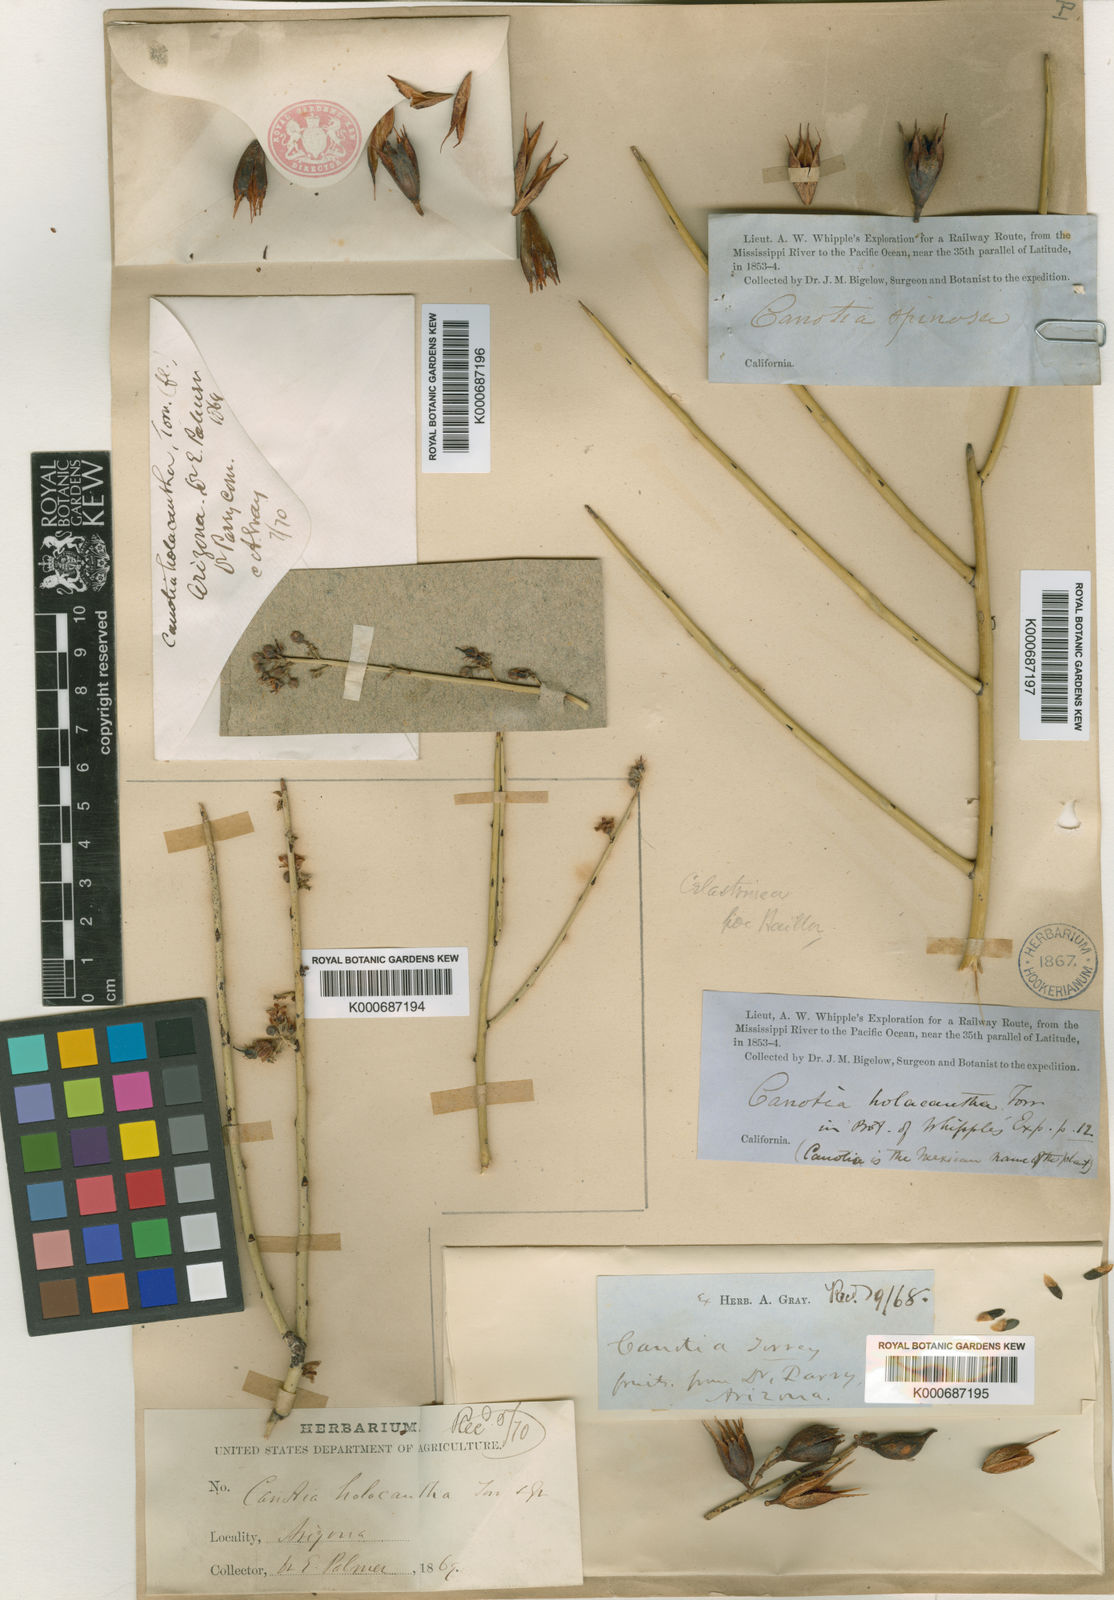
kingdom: Plantae
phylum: Tracheophyta
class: Magnoliopsida
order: Celastrales
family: Celastraceae
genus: Canotia
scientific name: Canotia
